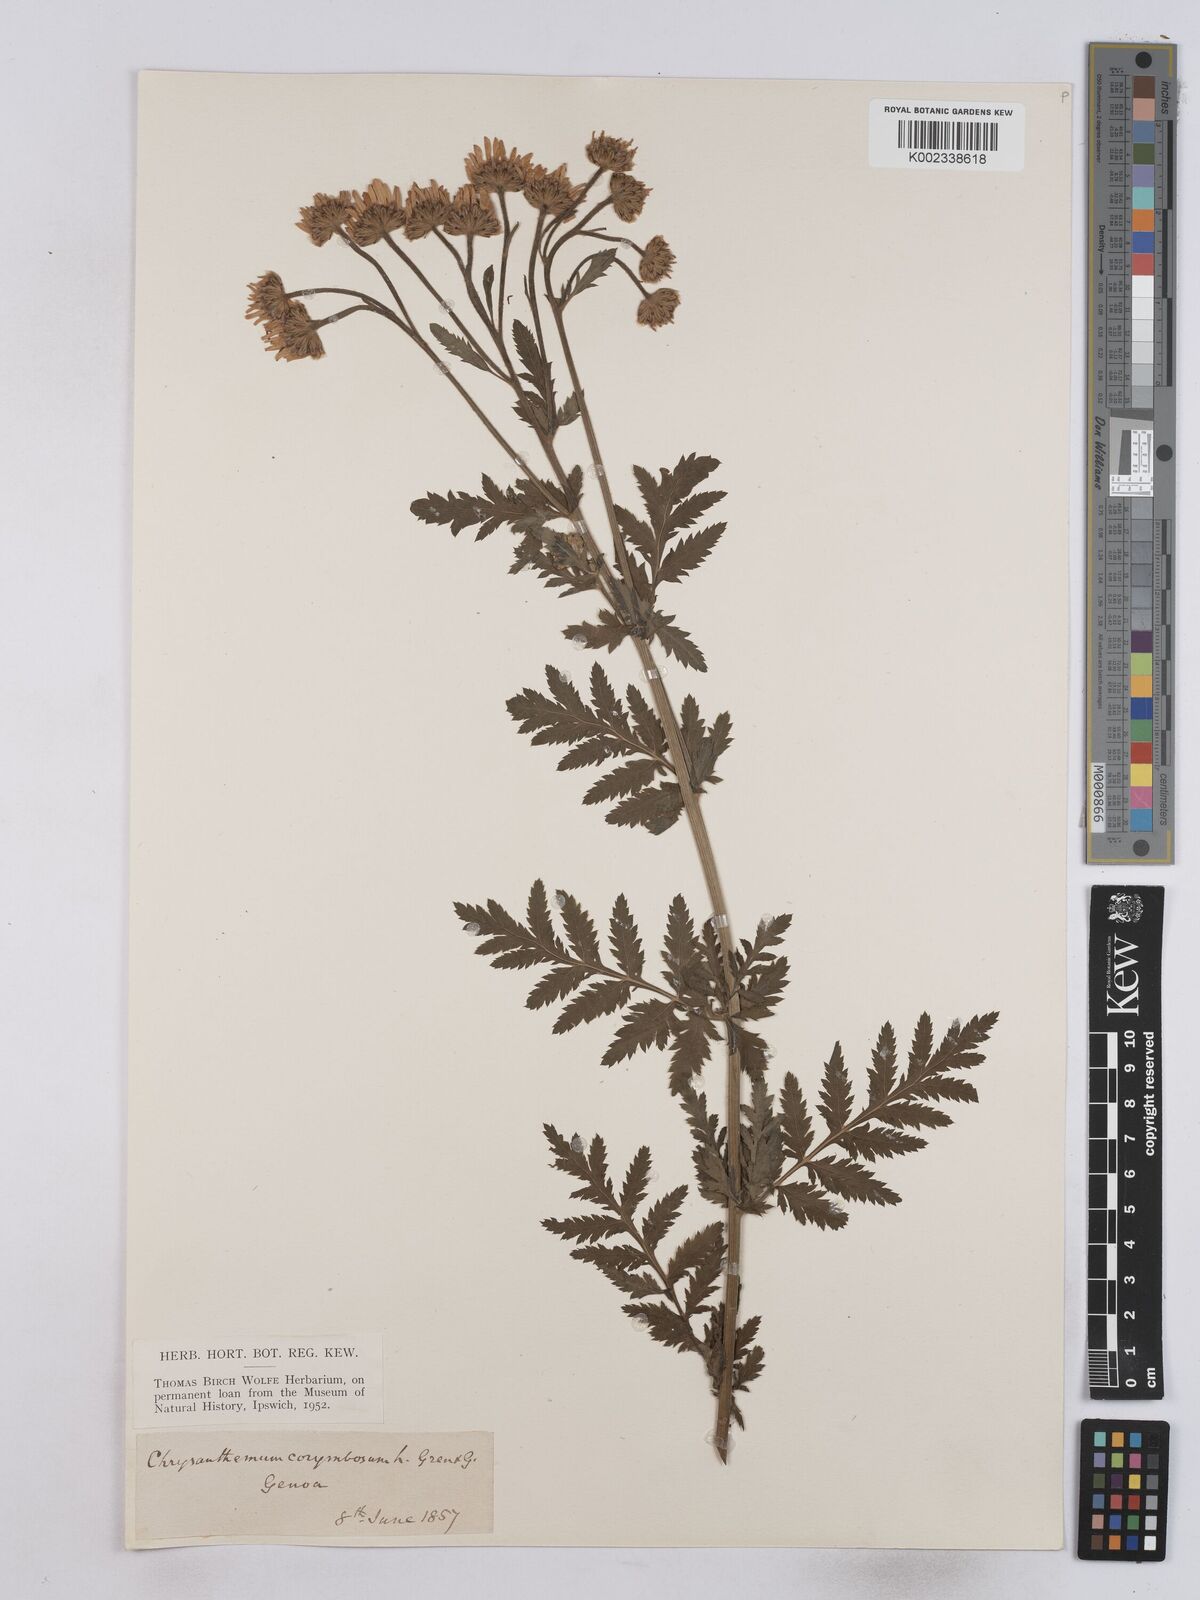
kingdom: Plantae
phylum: Tracheophyta
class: Magnoliopsida
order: Asterales
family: Asteraceae
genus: Tanacetum
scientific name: Tanacetum corymbosum
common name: Scentless feverfew
